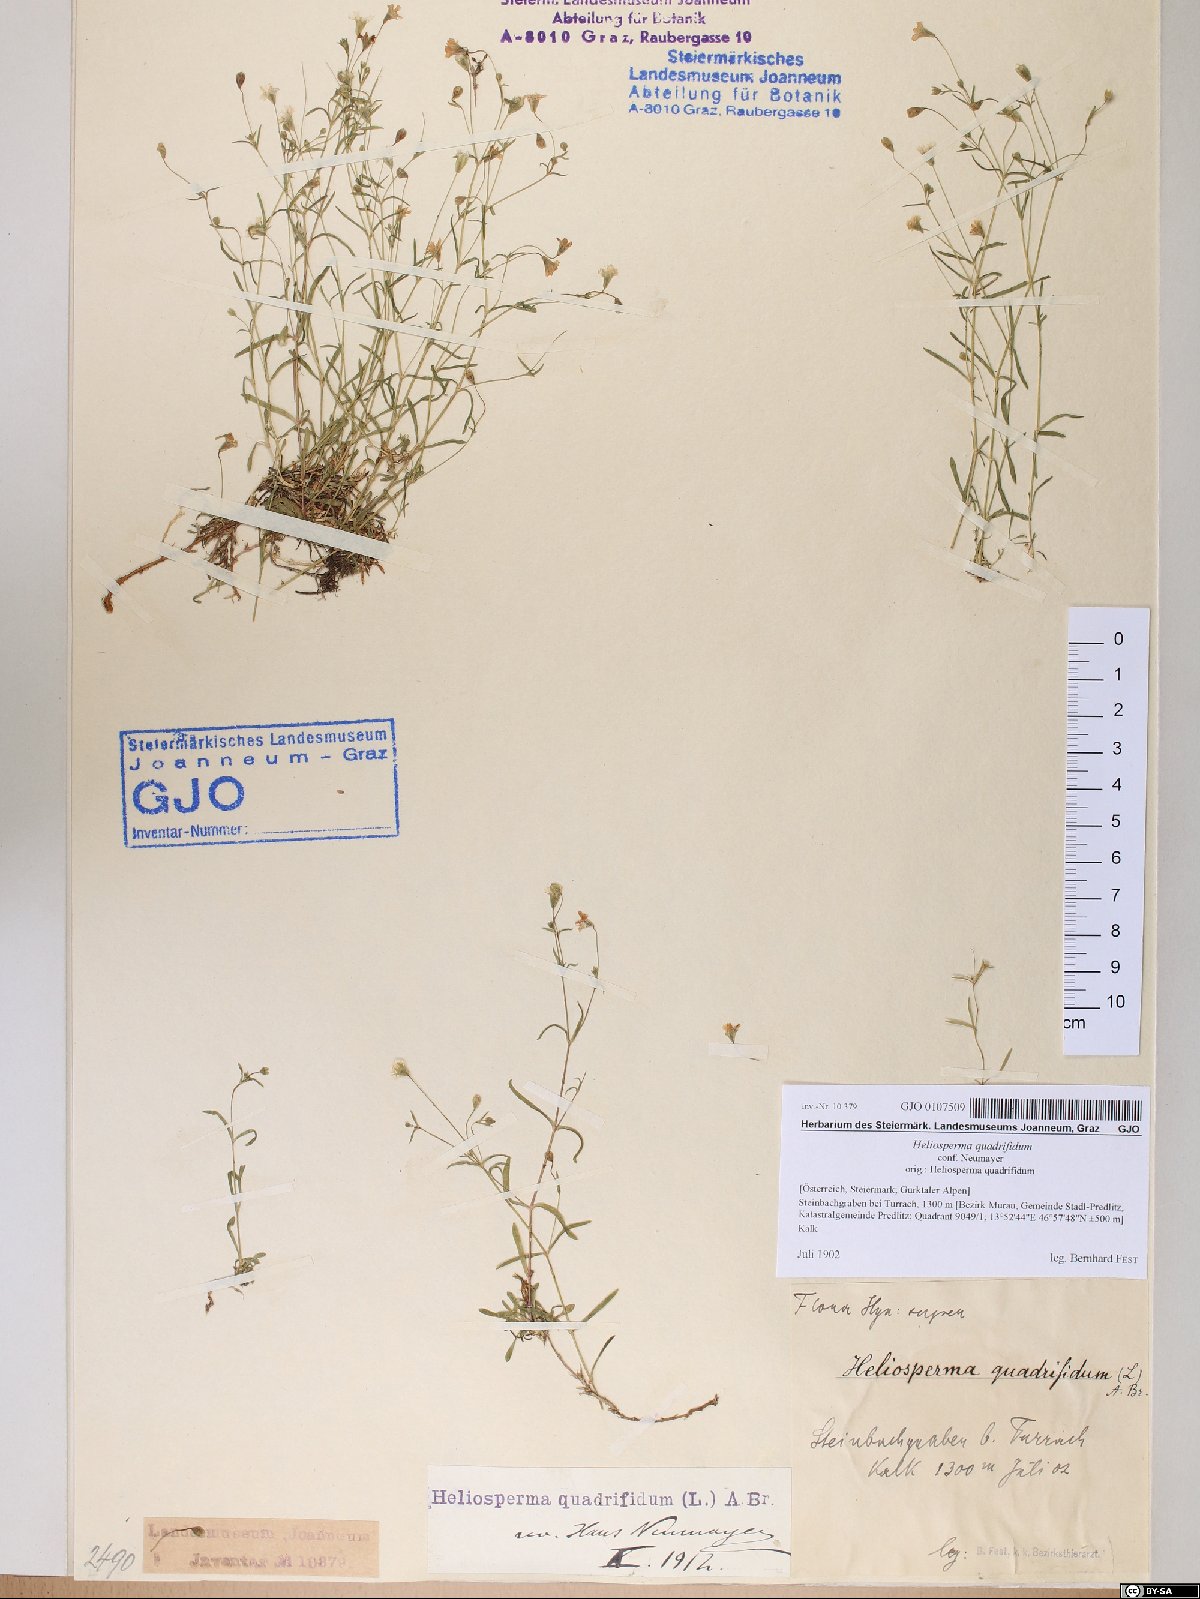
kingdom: Plantae
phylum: Tracheophyta
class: Magnoliopsida
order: Caryophyllales
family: Caryophyllaceae
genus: Heliosperma
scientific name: Heliosperma alpestre
